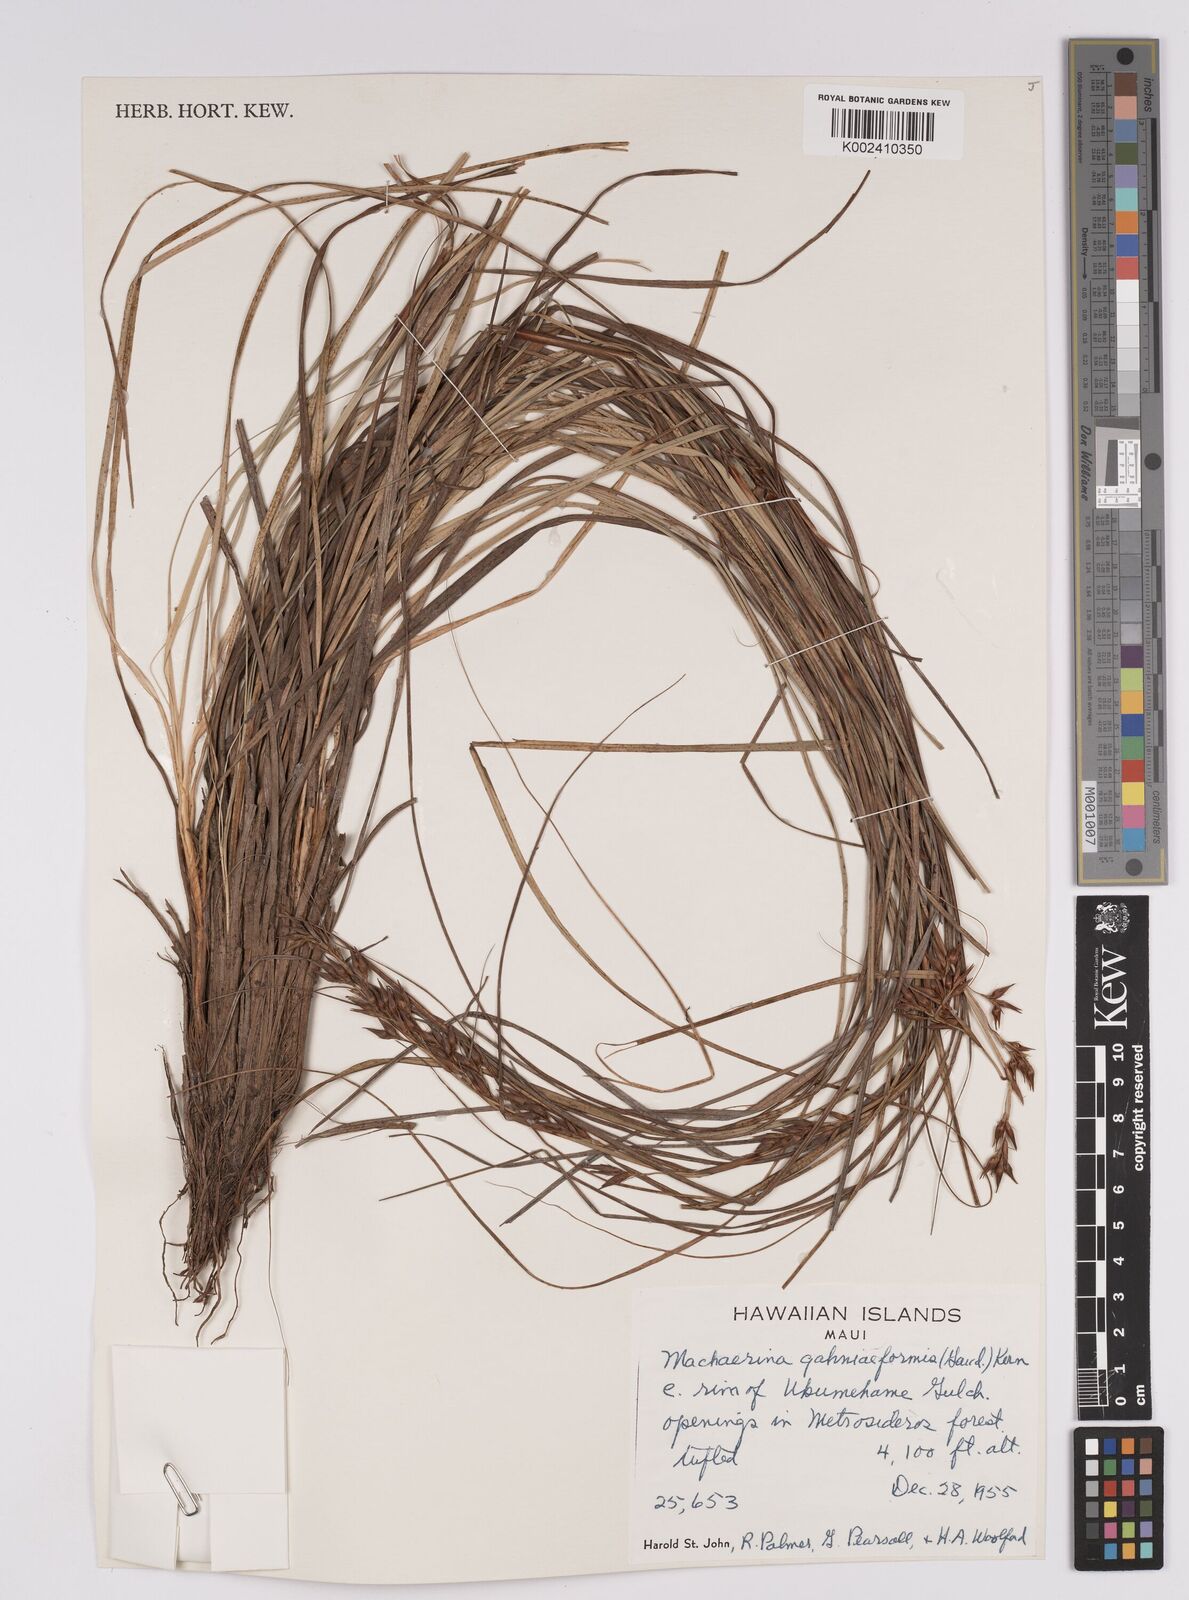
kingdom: Plantae
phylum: Tracheophyta
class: Liliopsida
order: Poales
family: Cyperaceae
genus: Morelotia
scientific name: Morelotia gahniiformis
